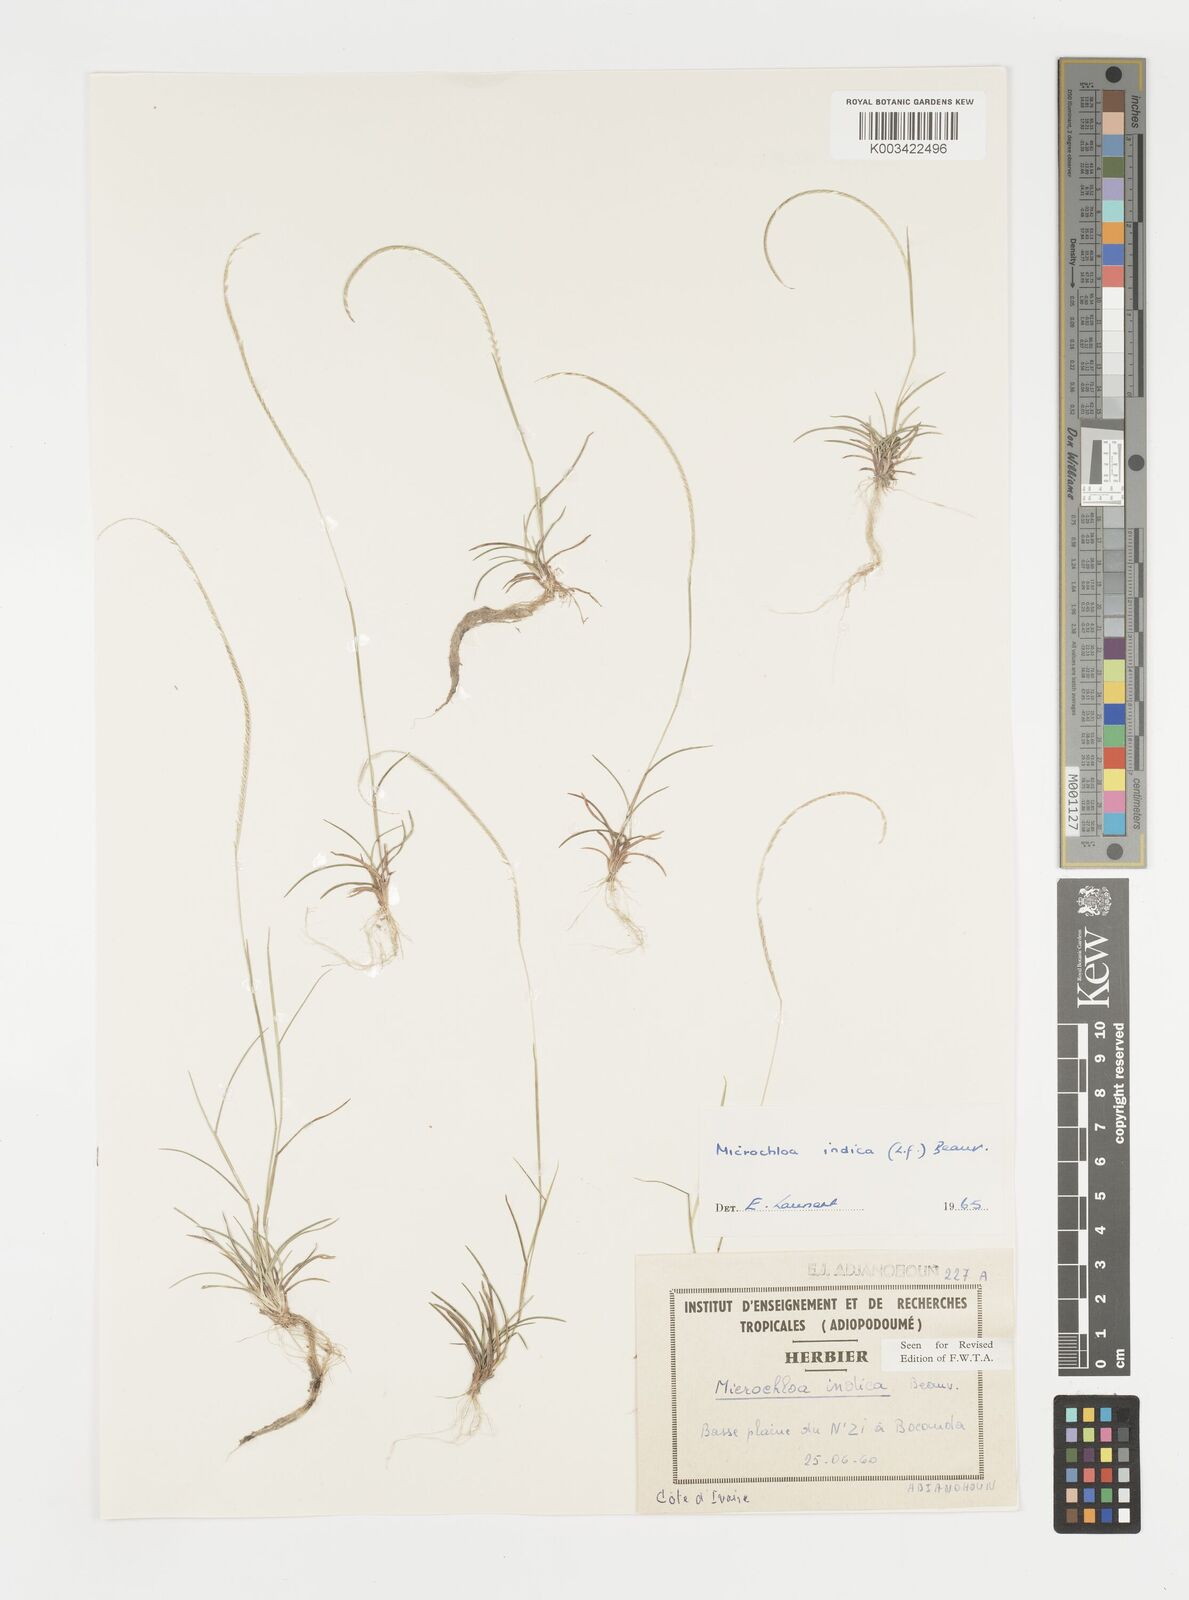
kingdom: Plantae
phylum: Tracheophyta
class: Liliopsida
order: Poales
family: Poaceae
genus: Microchloa
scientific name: Microchloa indica
